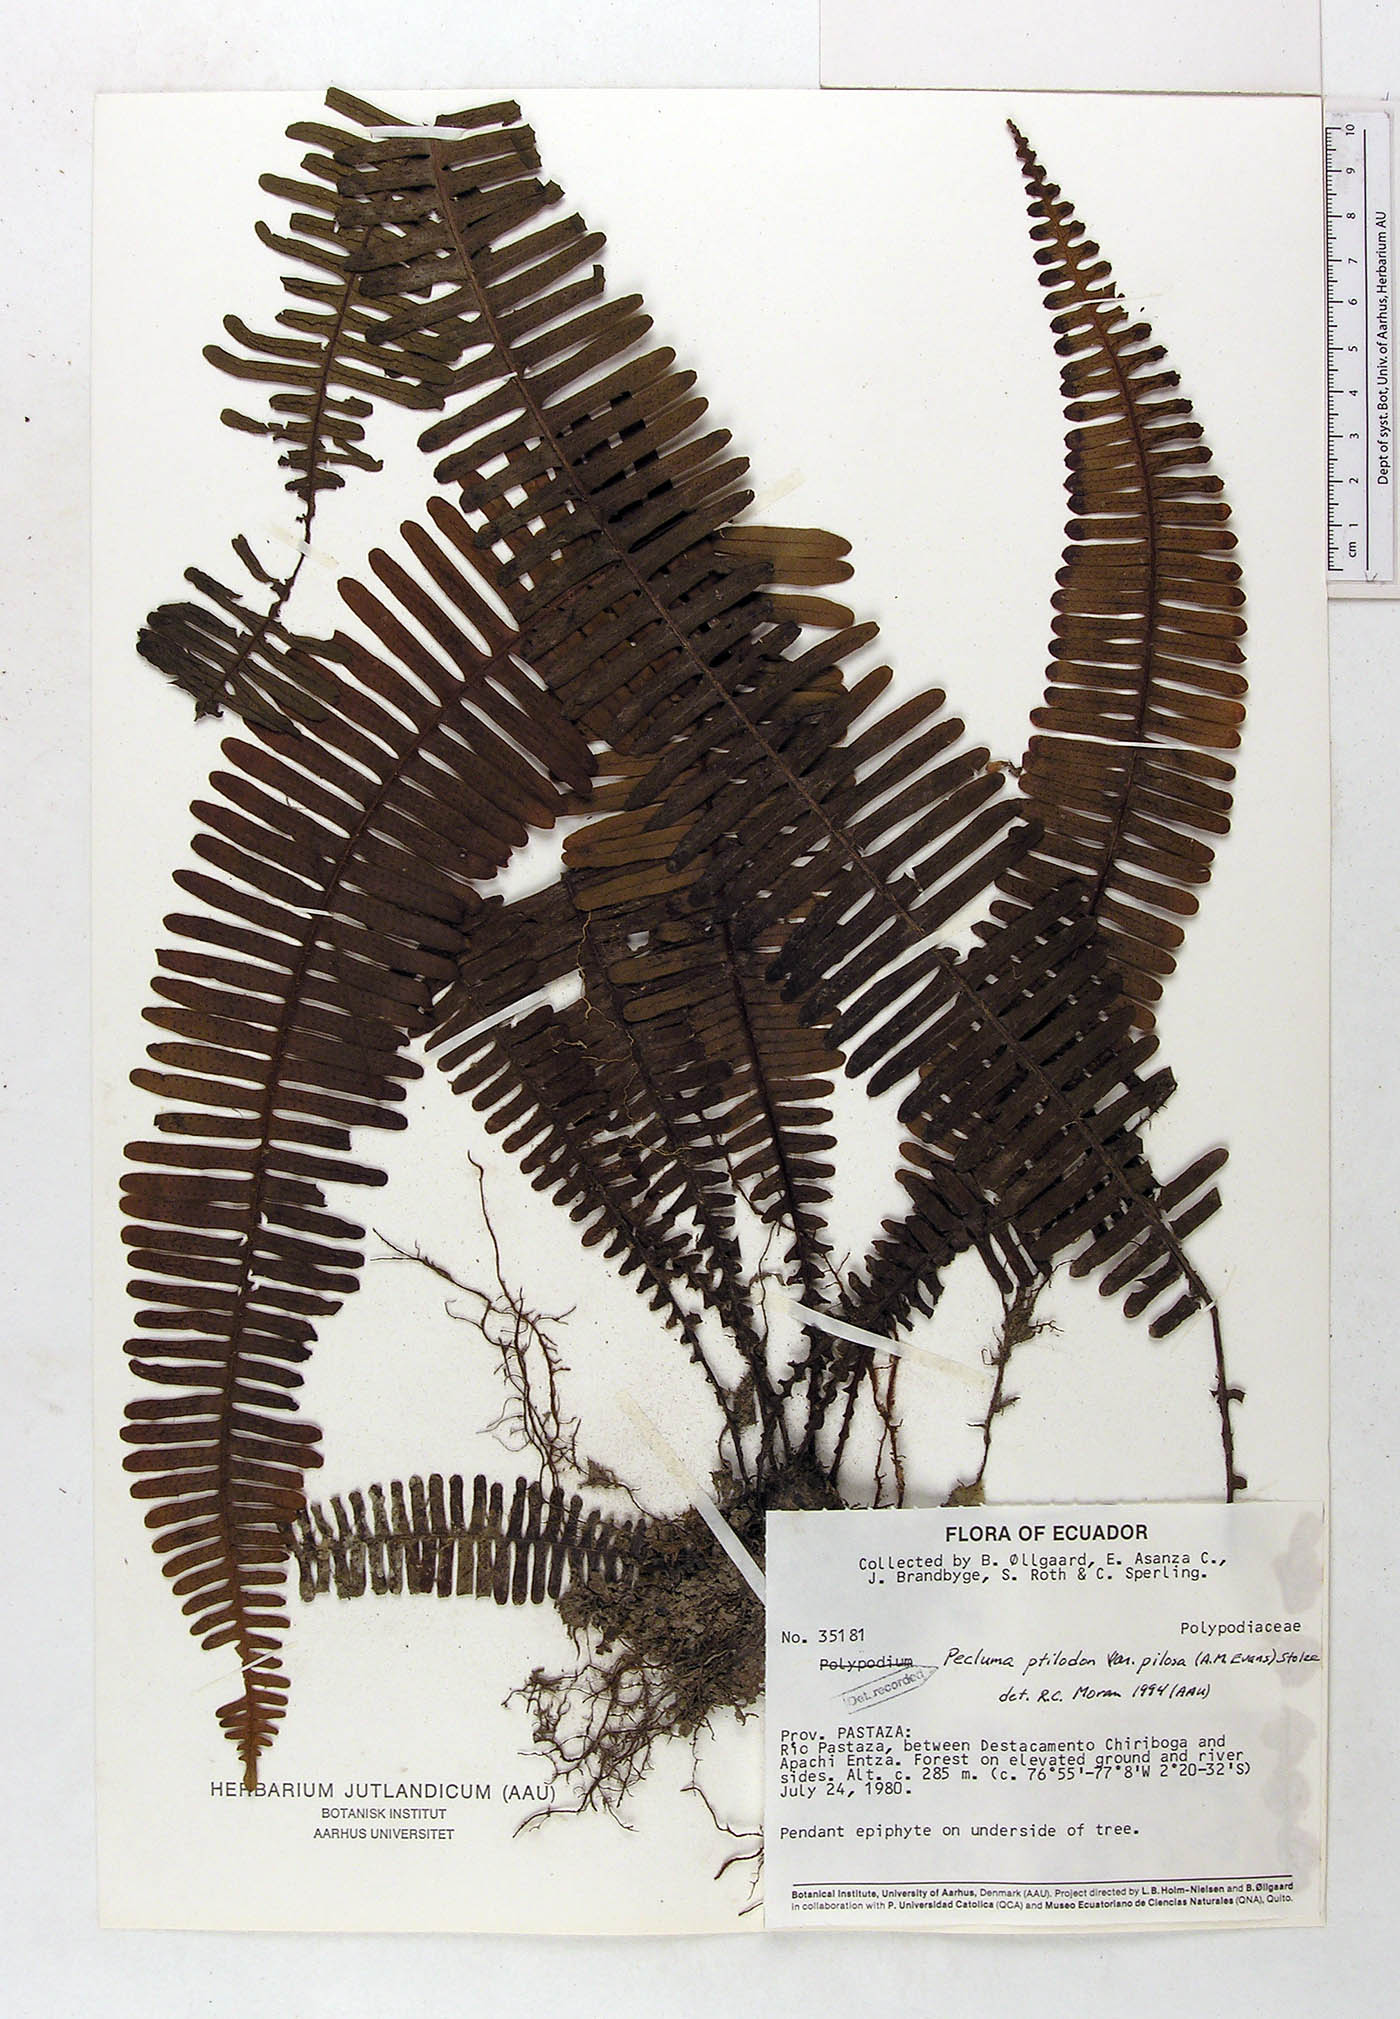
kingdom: Plantae
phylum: Tracheophyta
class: Polypodiopsida
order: Polypodiales
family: Polypodiaceae
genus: Pecluma
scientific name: Pecluma ptilotos
